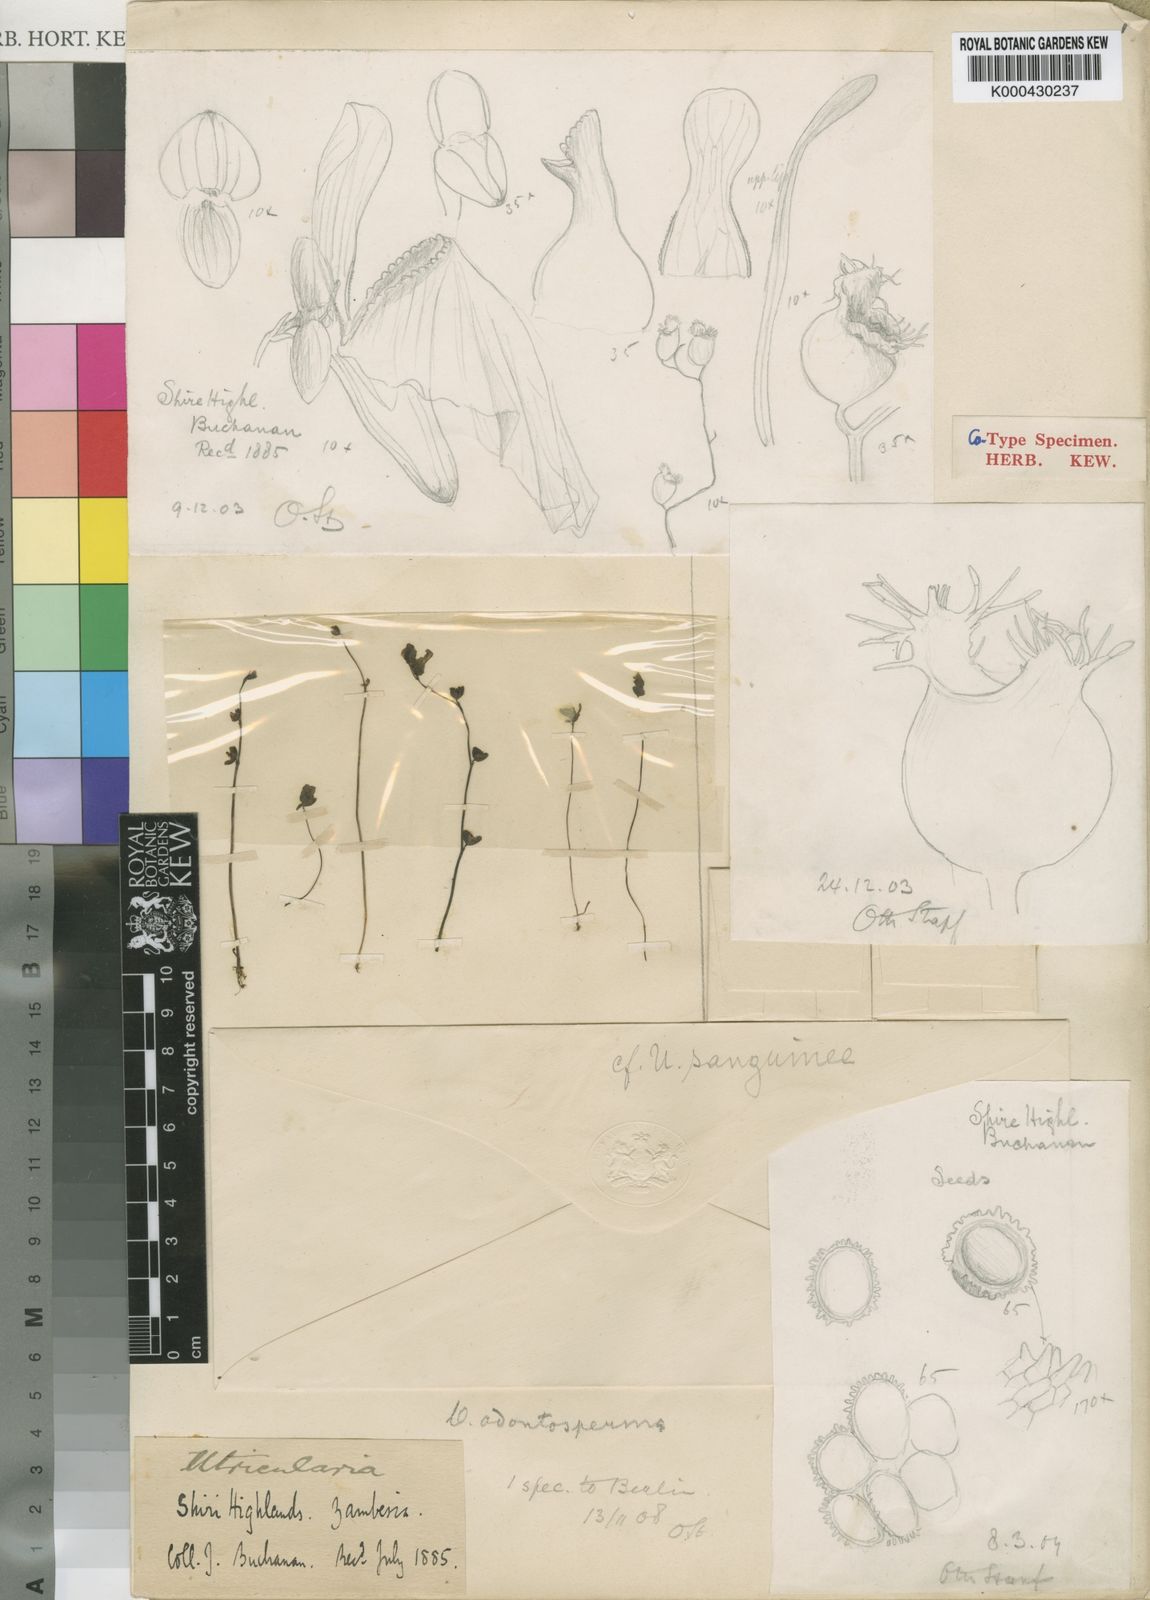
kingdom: Plantae
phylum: Tracheophyta
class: Magnoliopsida
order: Lamiales
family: Lentibulariaceae
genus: Utricularia
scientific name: Utricularia livida
